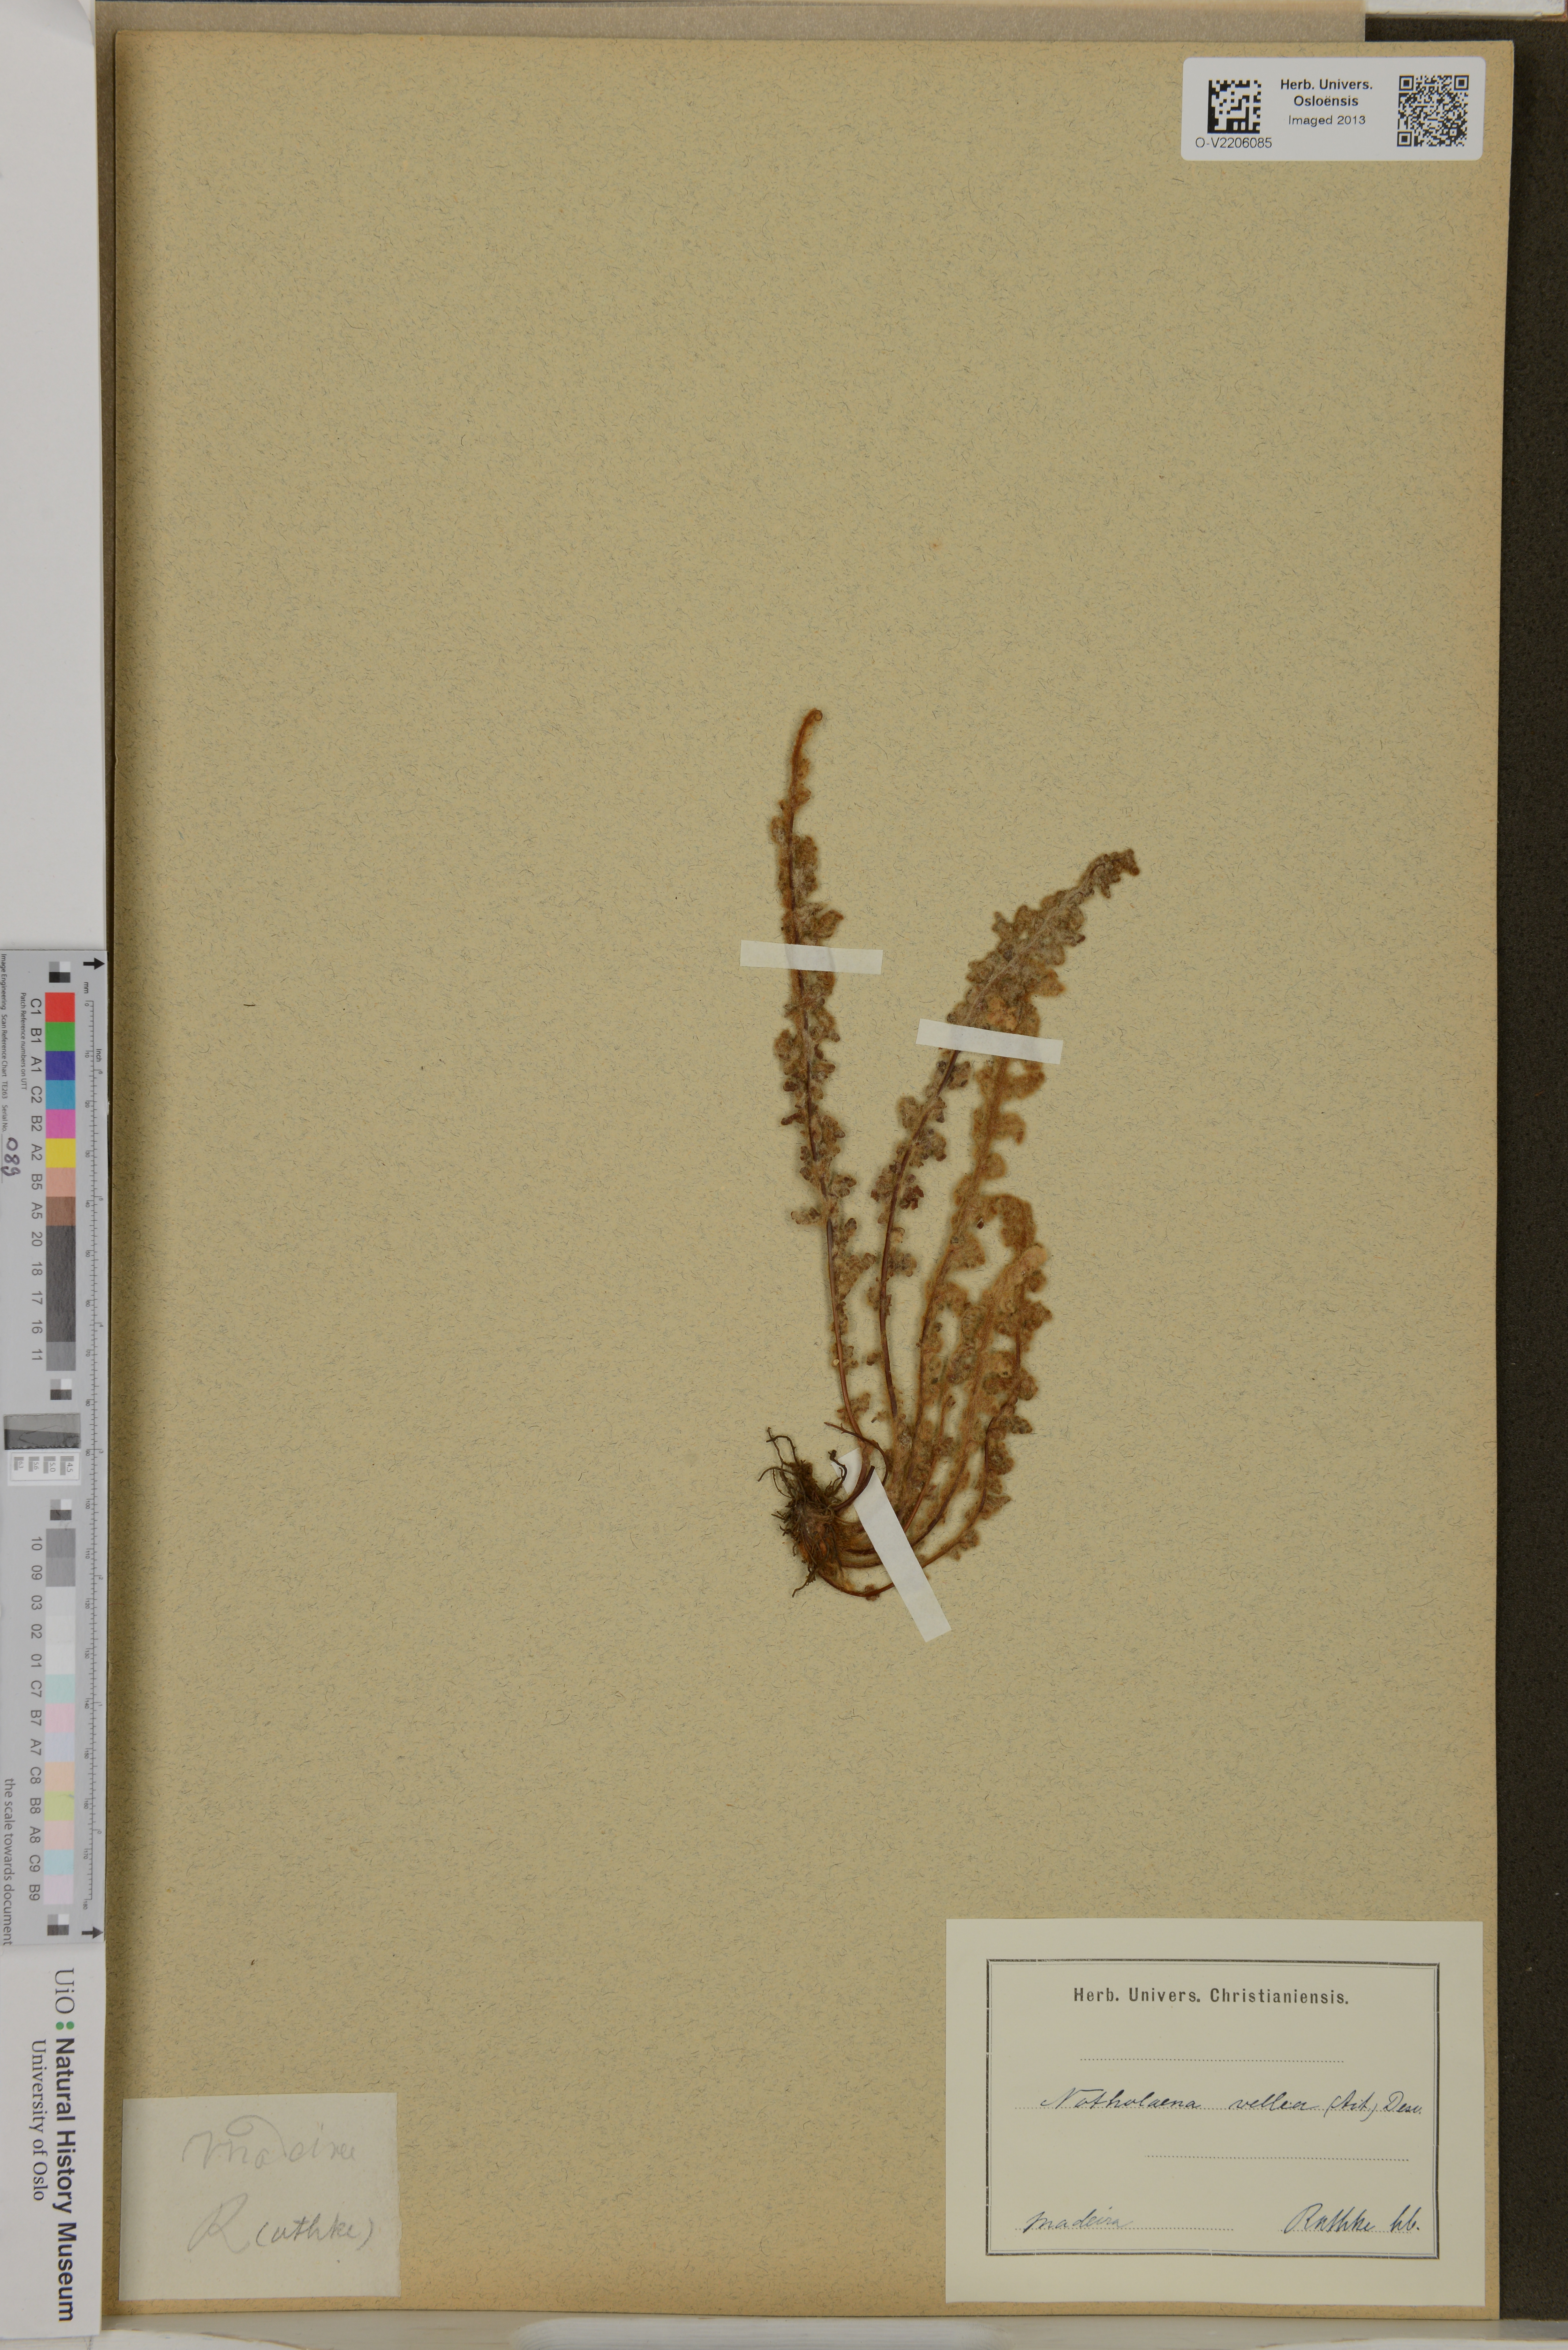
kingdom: Plantae
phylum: Tracheophyta
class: Polypodiopsida
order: Polypodiales
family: Pteridaceae
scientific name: Pteridaceae
